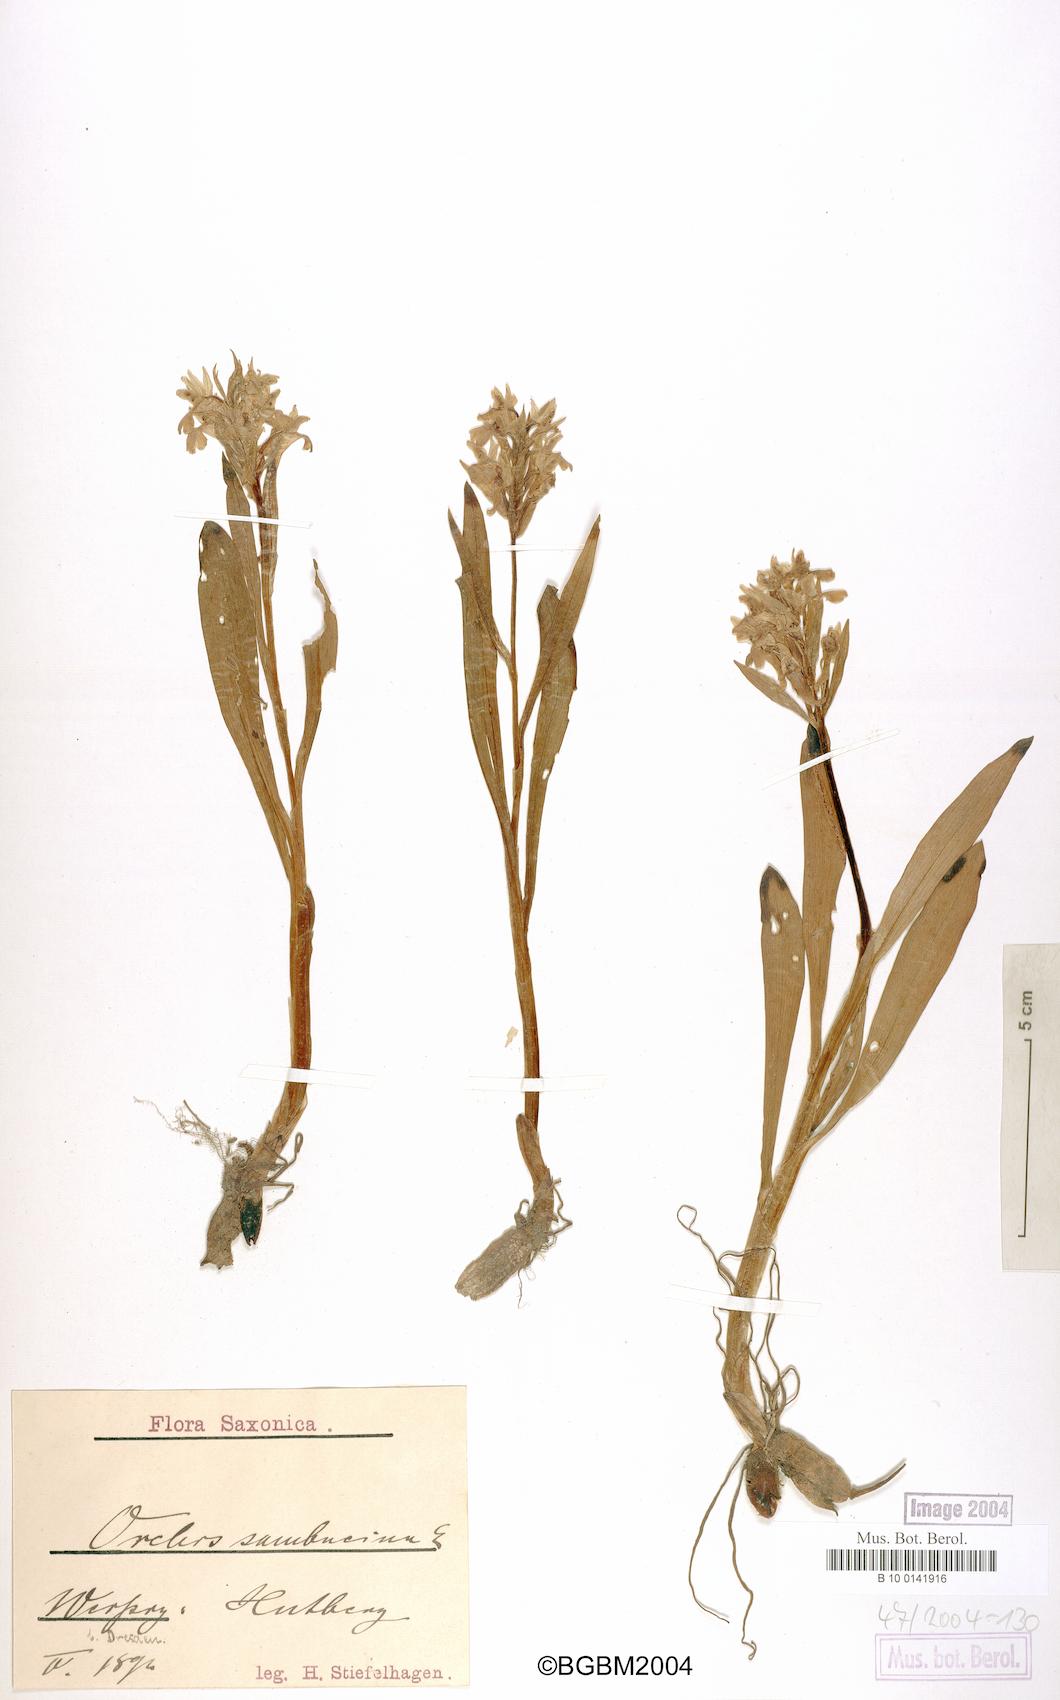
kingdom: Plantae
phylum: Tracheophyta
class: Liliopsida
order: Asparagales
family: Orchidaceae
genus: Dactylorhiza
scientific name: Dactylorhiza sambucina
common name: Elder-flowered orchid
